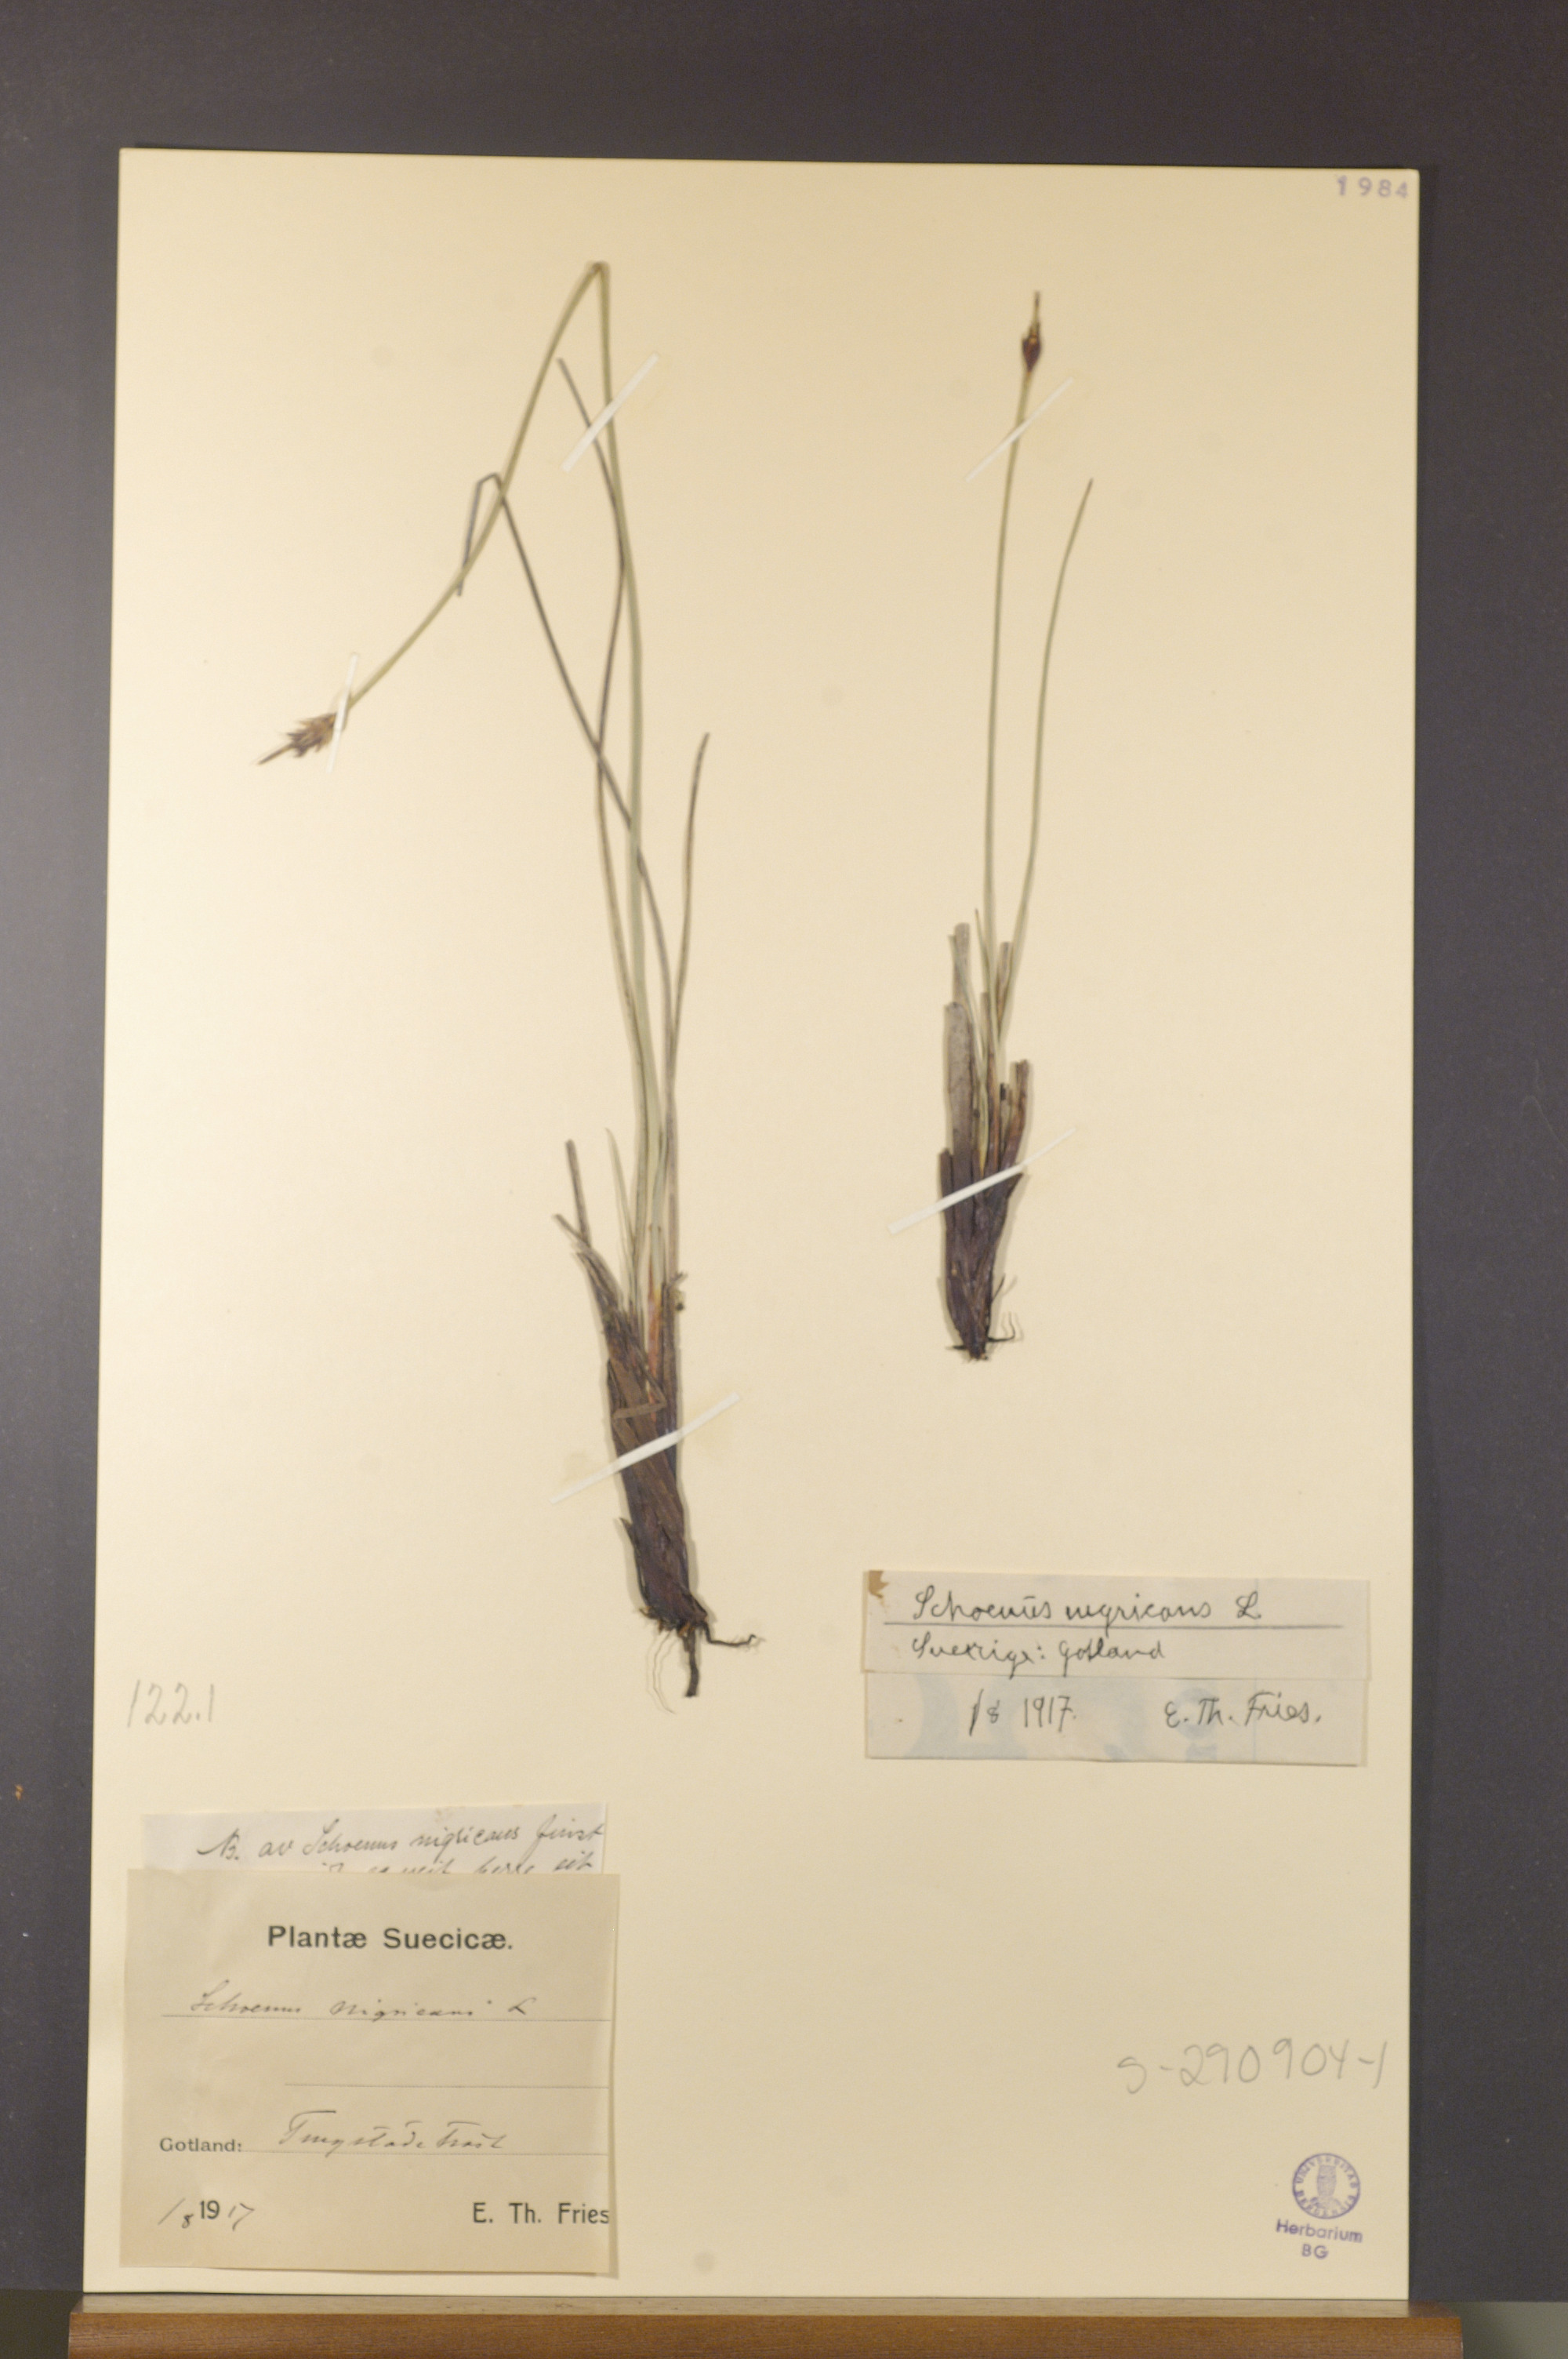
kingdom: Plantae
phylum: Tracheophyta
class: Liliopsida
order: Poales
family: Cyperaceae
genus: Schoenus
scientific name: Schoenus nigricans
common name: Black bog-rush
